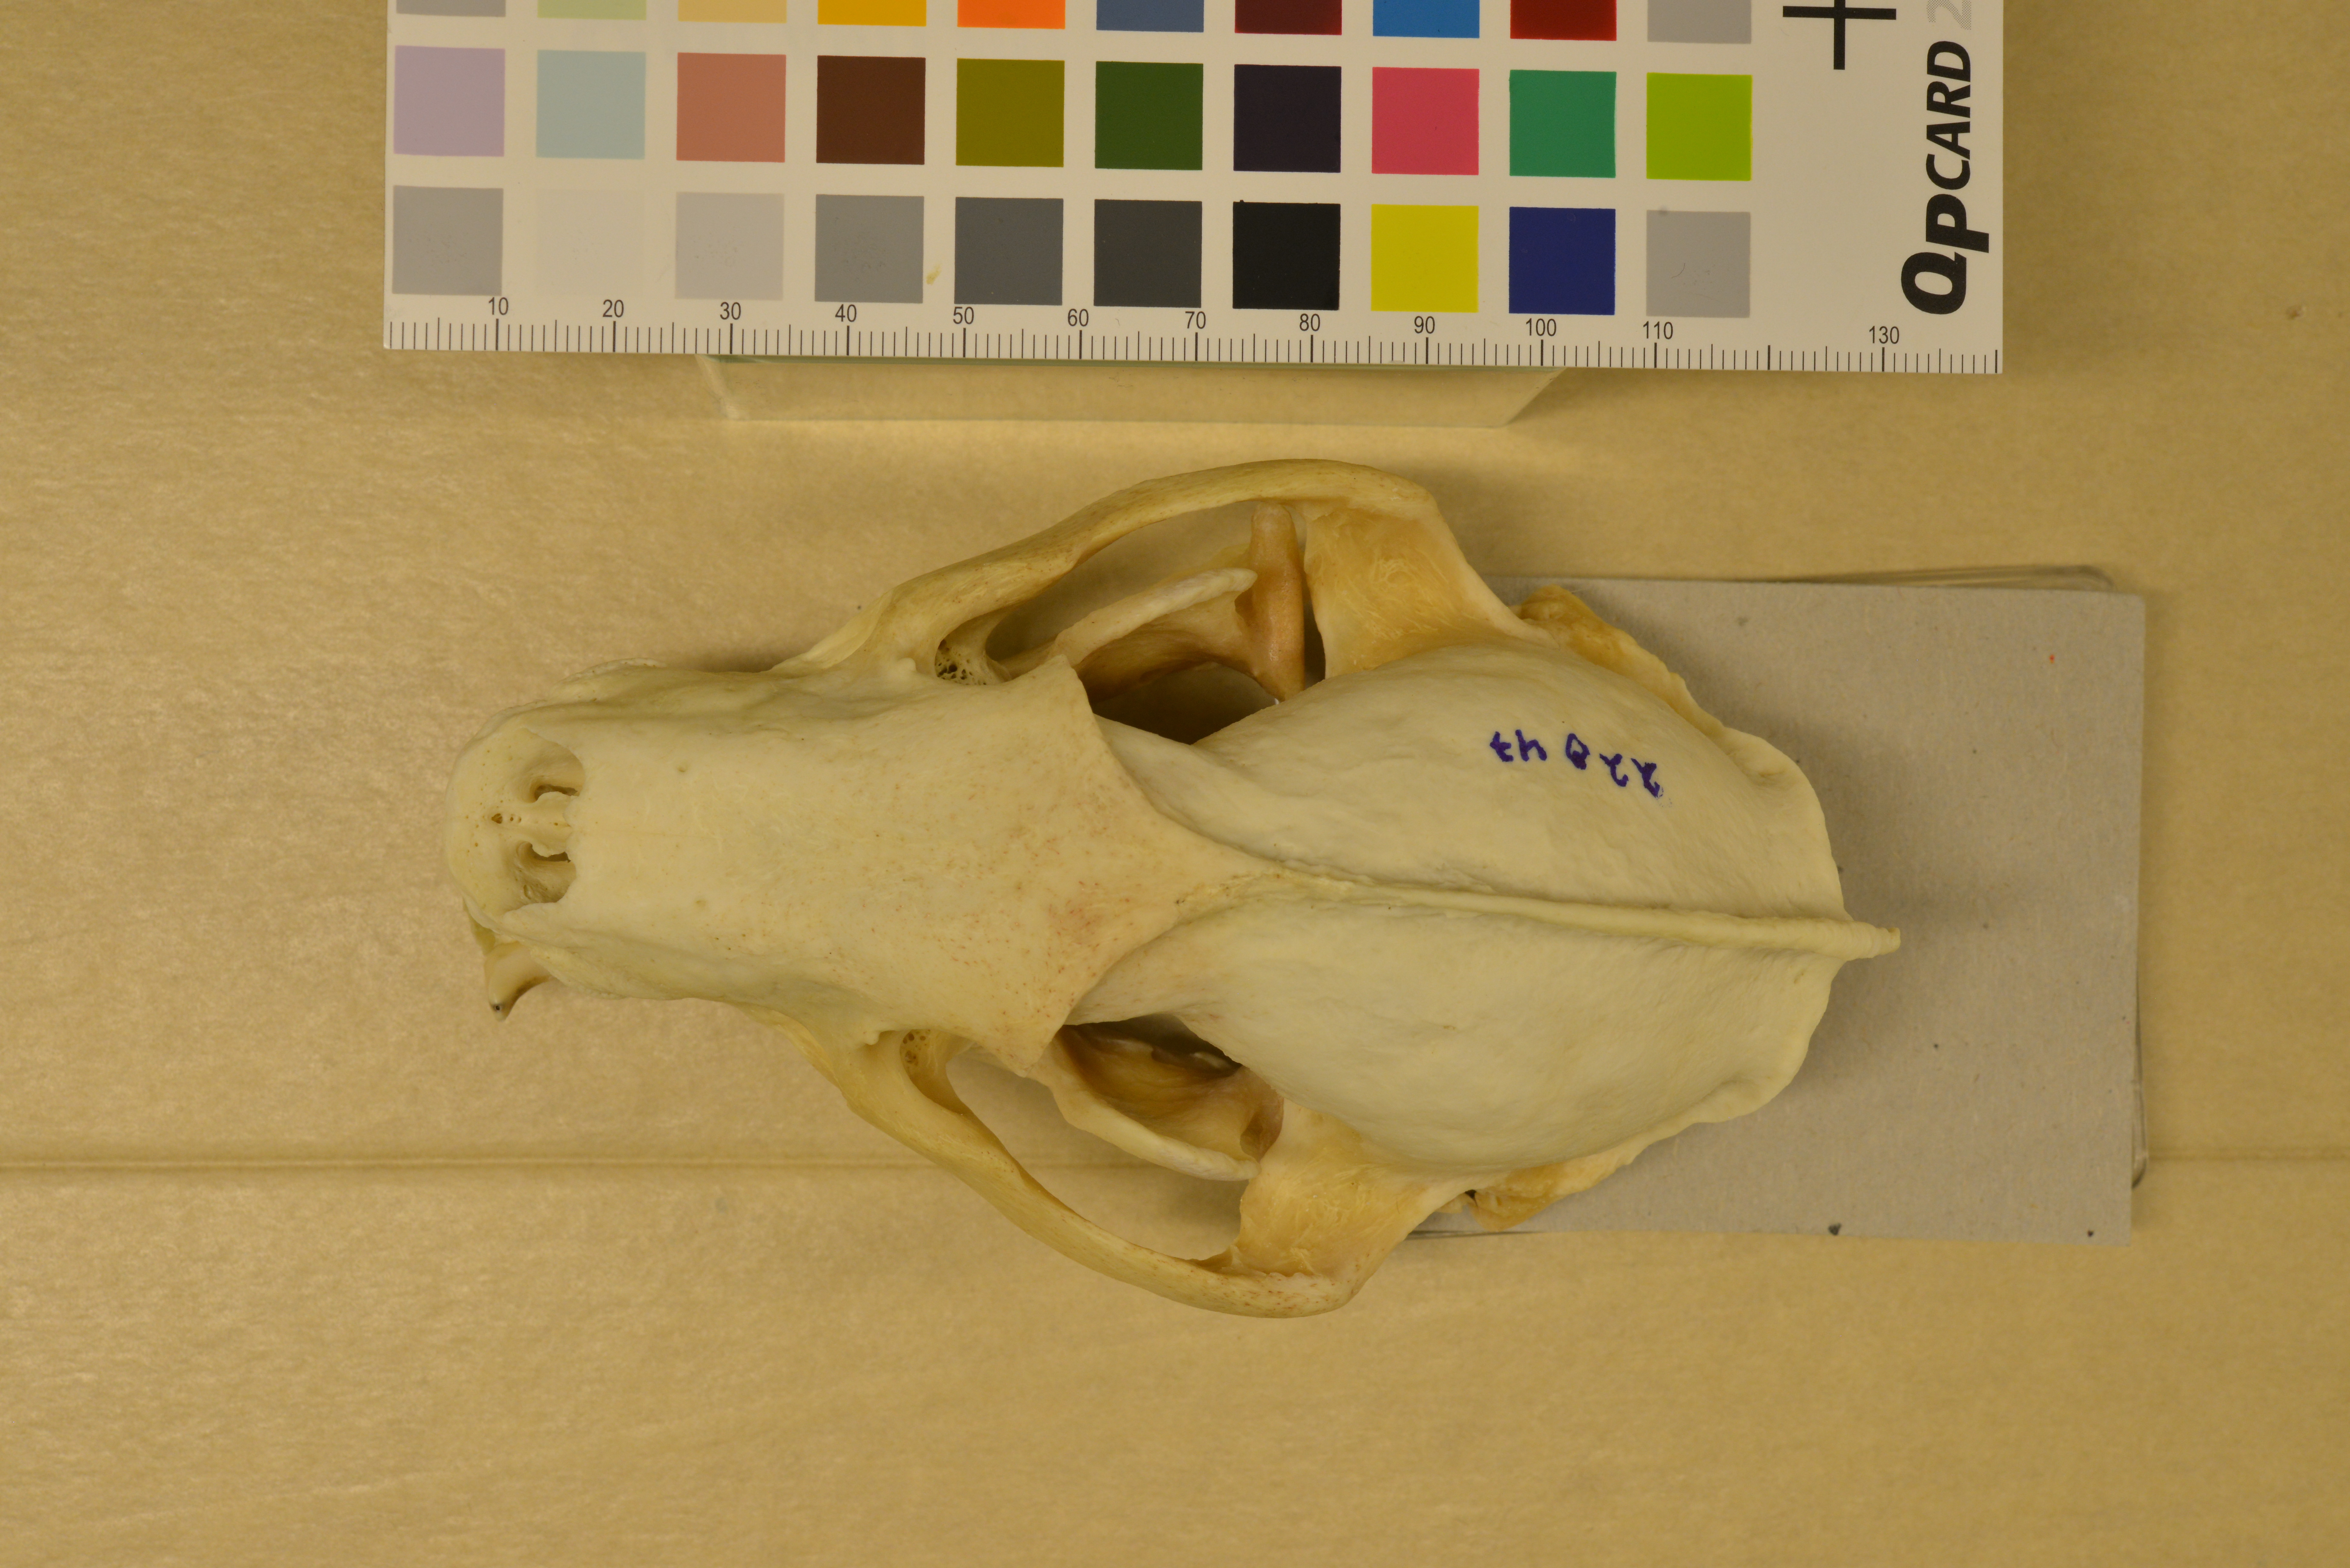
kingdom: Animalia
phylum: Chordata
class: Mammalia
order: Carnivora
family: Mustelidae
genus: Meles
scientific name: Meles meles
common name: Eurasian badger
